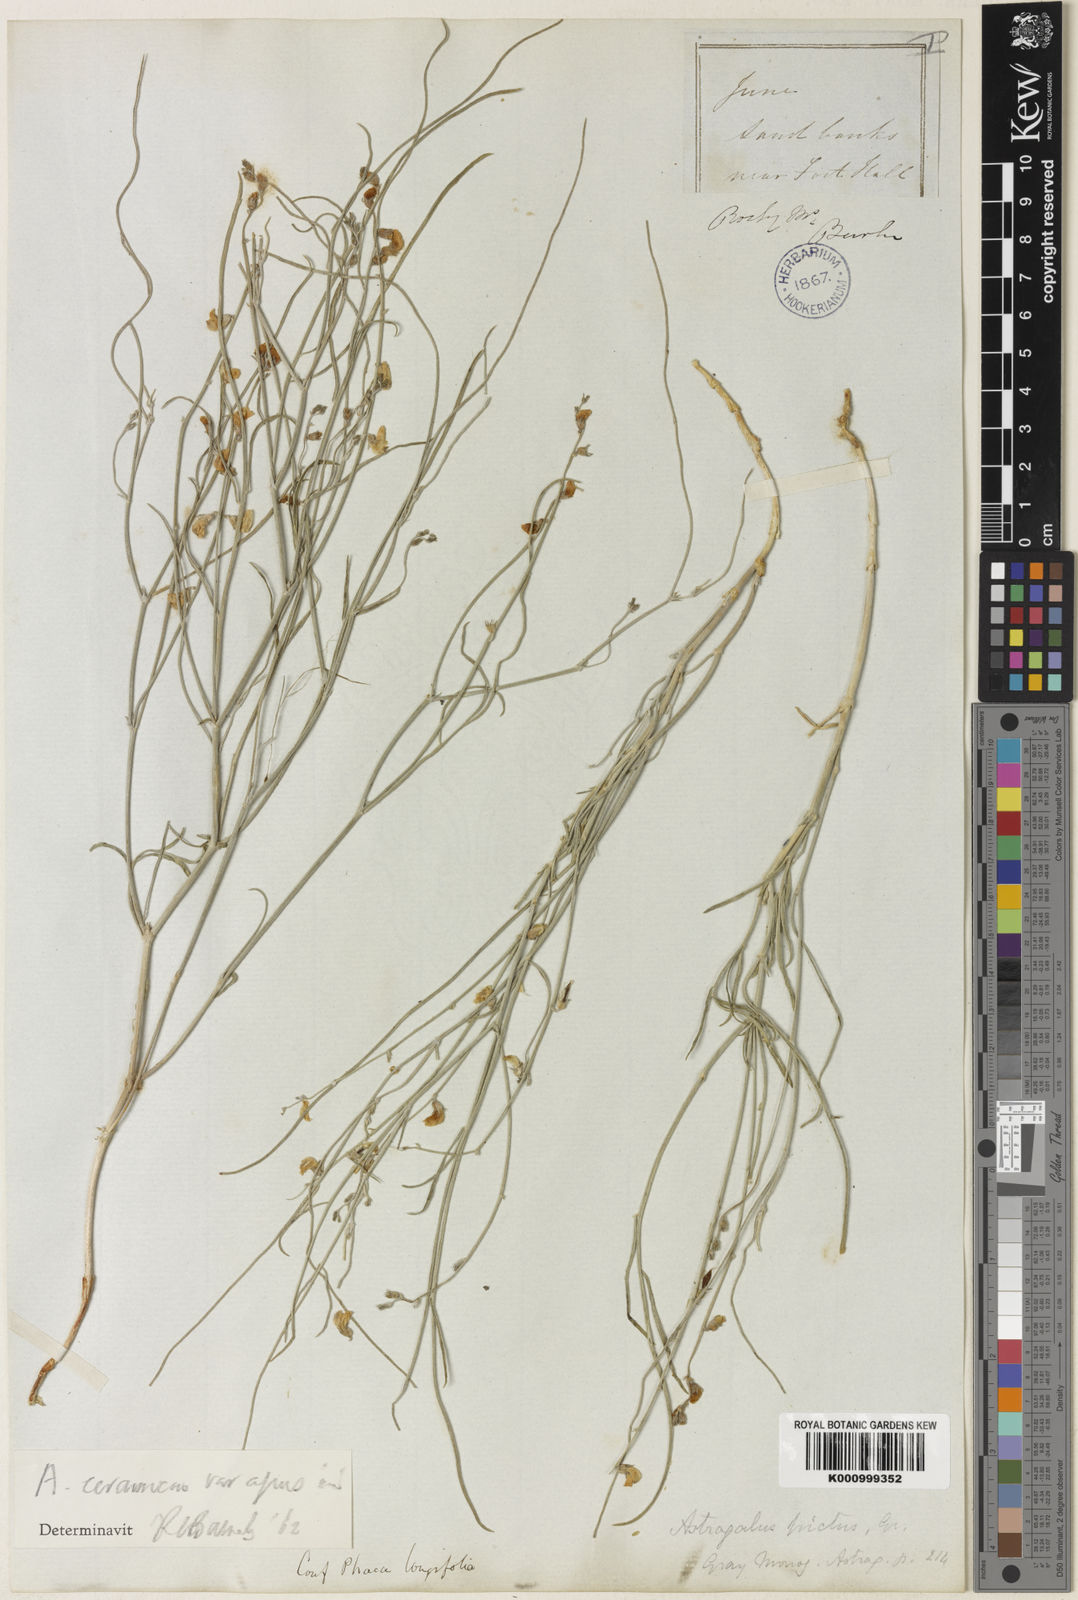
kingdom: Plantae
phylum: Tracheophyta
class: Magnoliopsida
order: Fabales
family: Fabaceae
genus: Astragalus
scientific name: Astragalus ceramicus
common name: Painted milk-vetch
